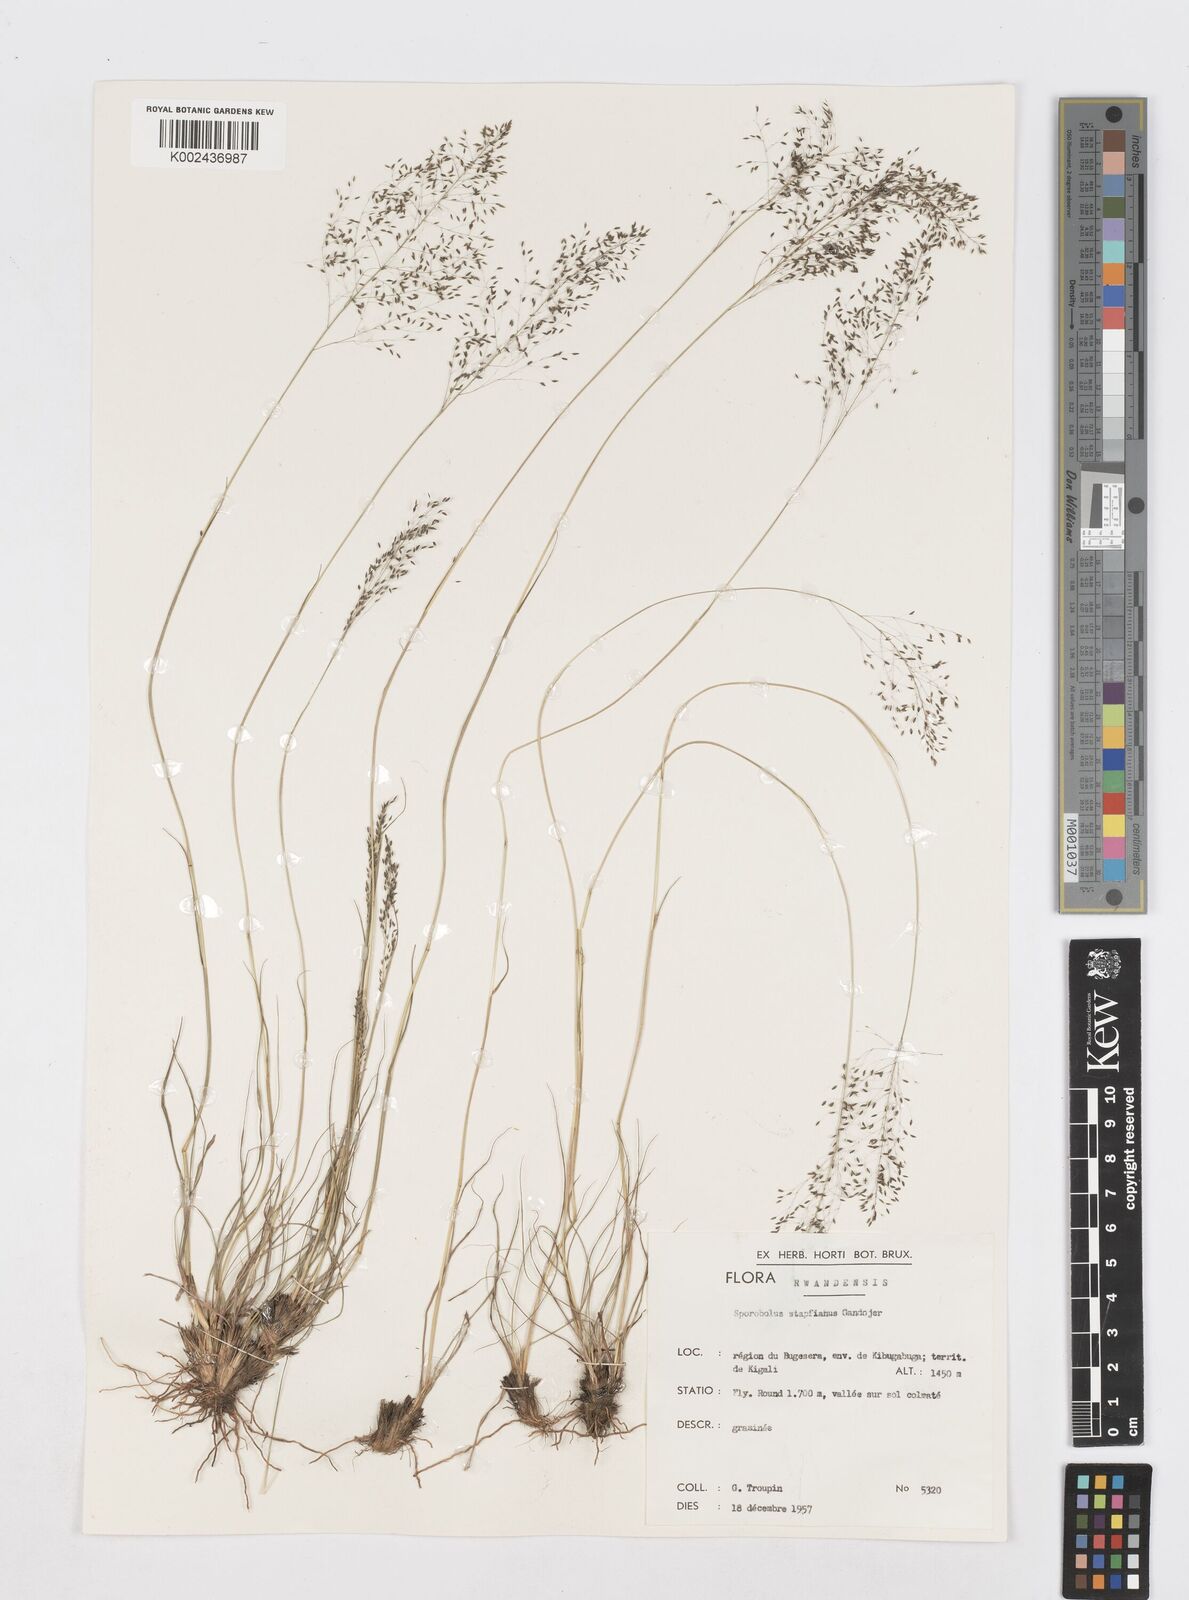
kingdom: Plantae
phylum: Tracheophyta
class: Liliopsida
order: Poales
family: Poaceae
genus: Sporobolus
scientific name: Sporobolus stapfianus
